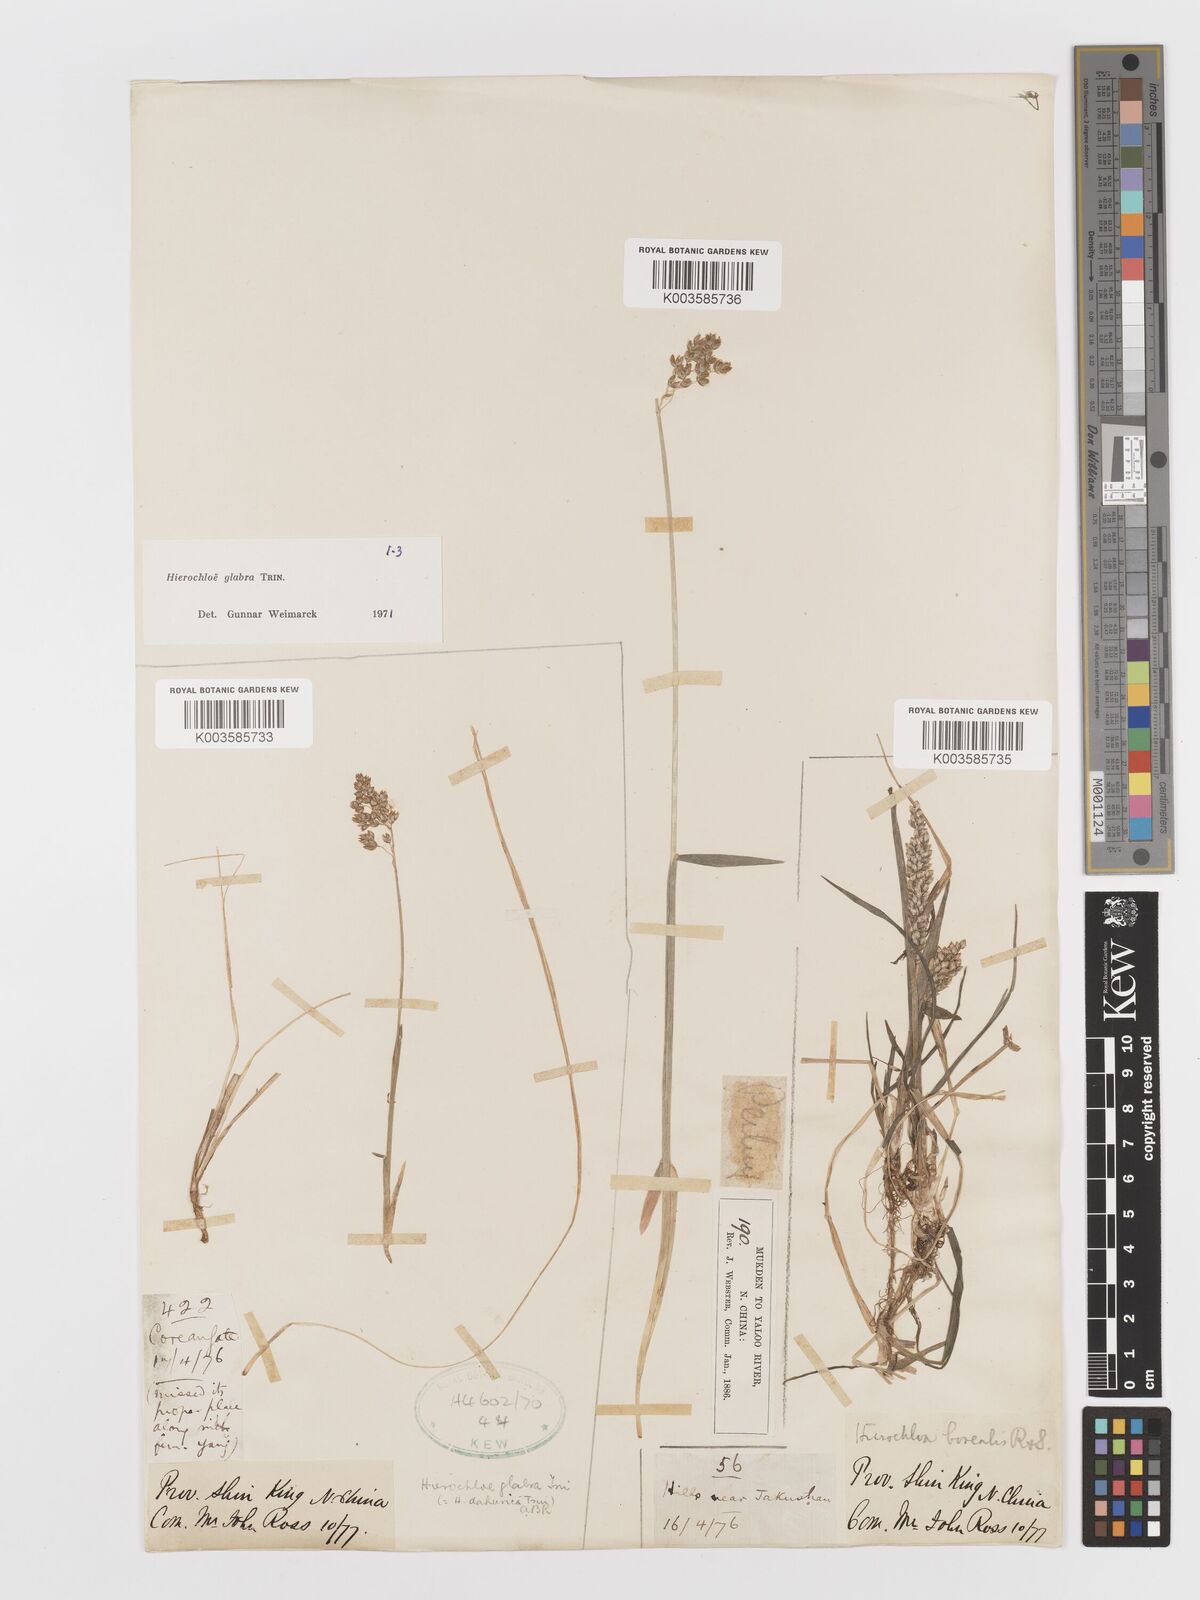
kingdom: Plantae
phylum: Tracheophyta
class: Liliopsida
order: Poales
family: Poaceae
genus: Anthoxanthum
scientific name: Anthoxanthum glabrum
